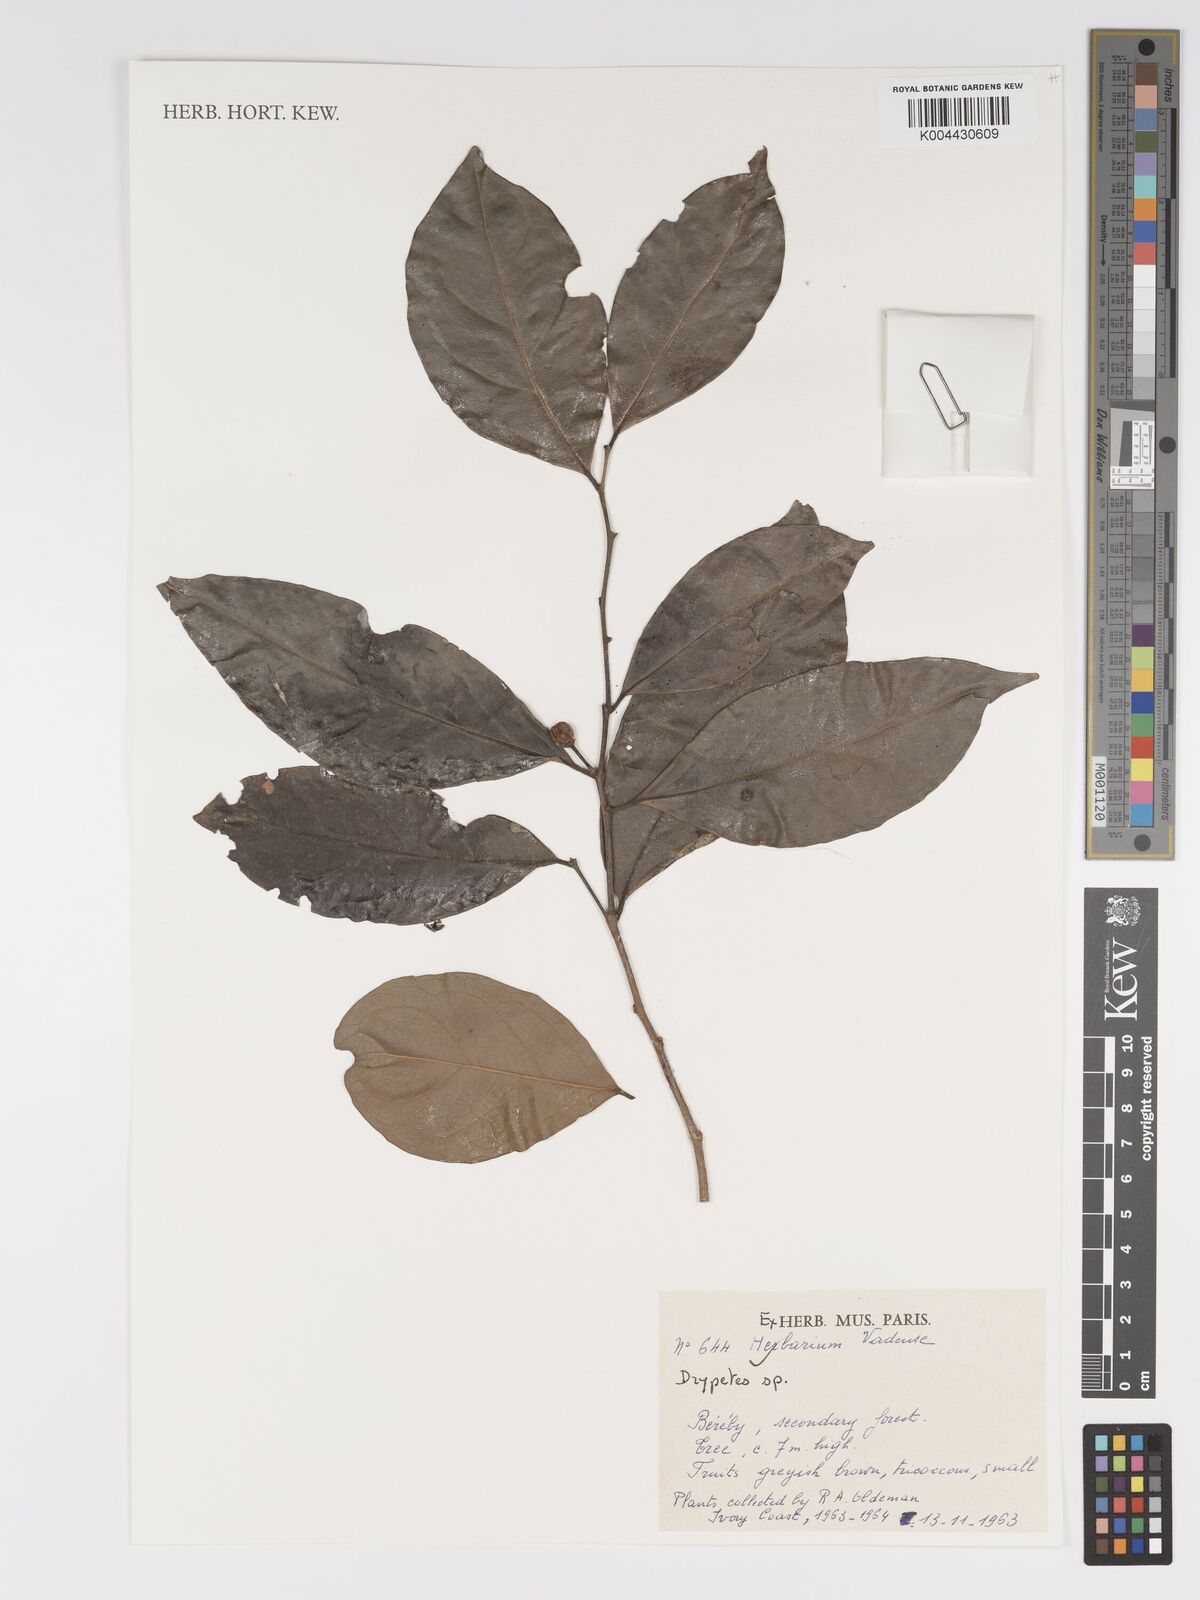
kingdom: Plantae
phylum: Tracheophyta
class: Magnoliopsida
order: Malpighiales
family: Putranjivaceae
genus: Drypetes
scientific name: Drypetes
